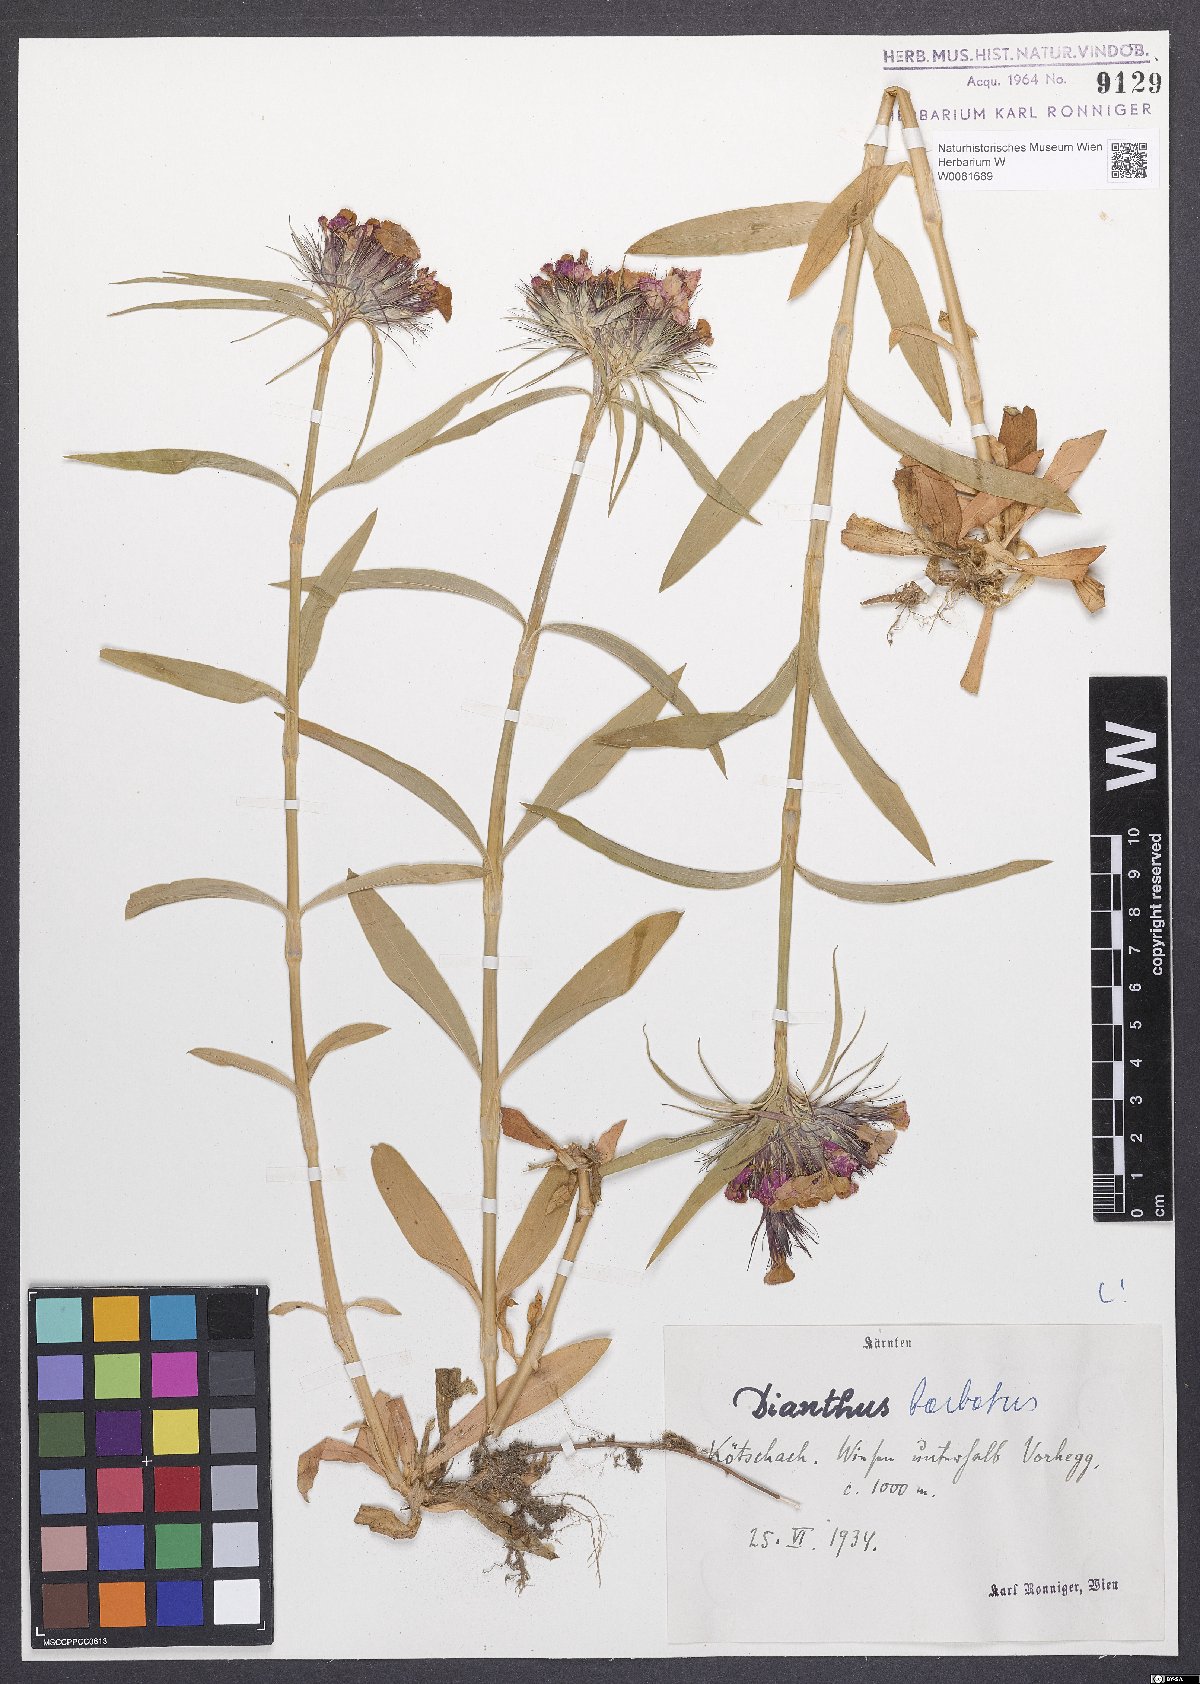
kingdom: Plantae
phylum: Tracheophyta
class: Magnoliopsida
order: Caryophyllales
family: Caryophyllaceae
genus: Dianthus
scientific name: Dianthus barbatus
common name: Sweet-william
